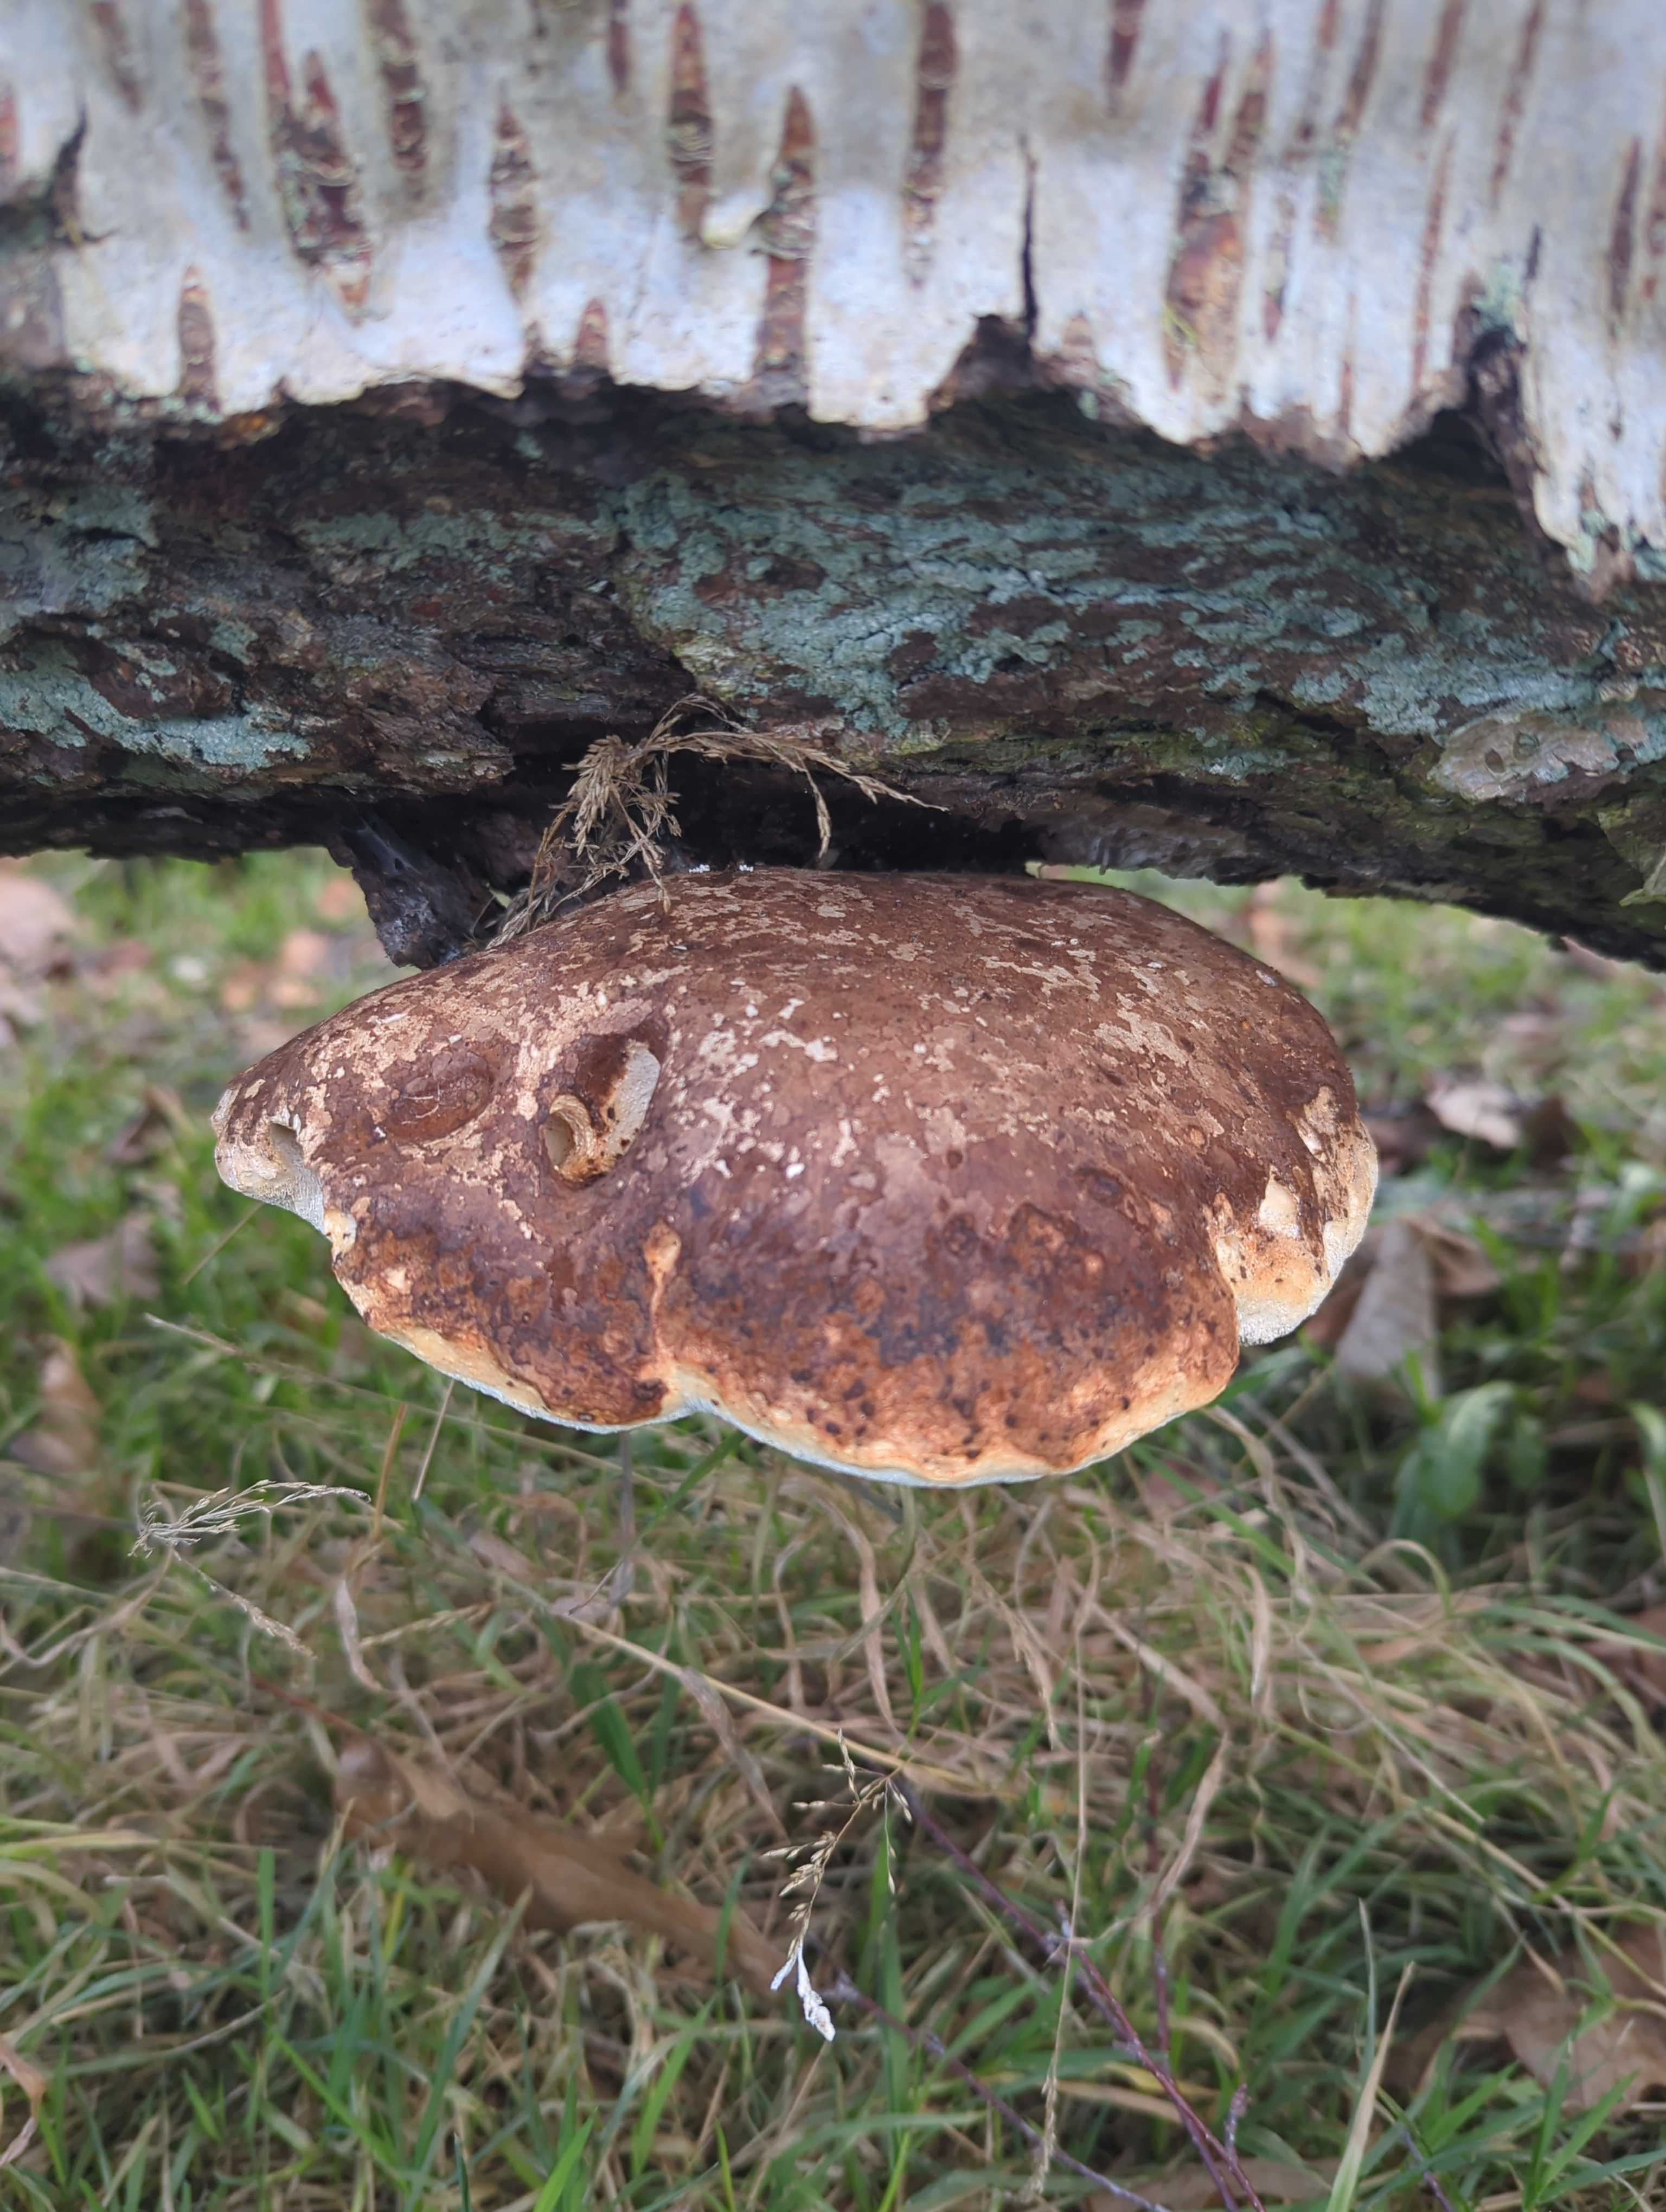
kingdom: Fungi
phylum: Basidiomycota
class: Agaricomycetes
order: Polyporales
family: Fomitopsidaceae
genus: Fomitopsis
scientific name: Fomitopsis betulina
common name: birkeporesvamp
